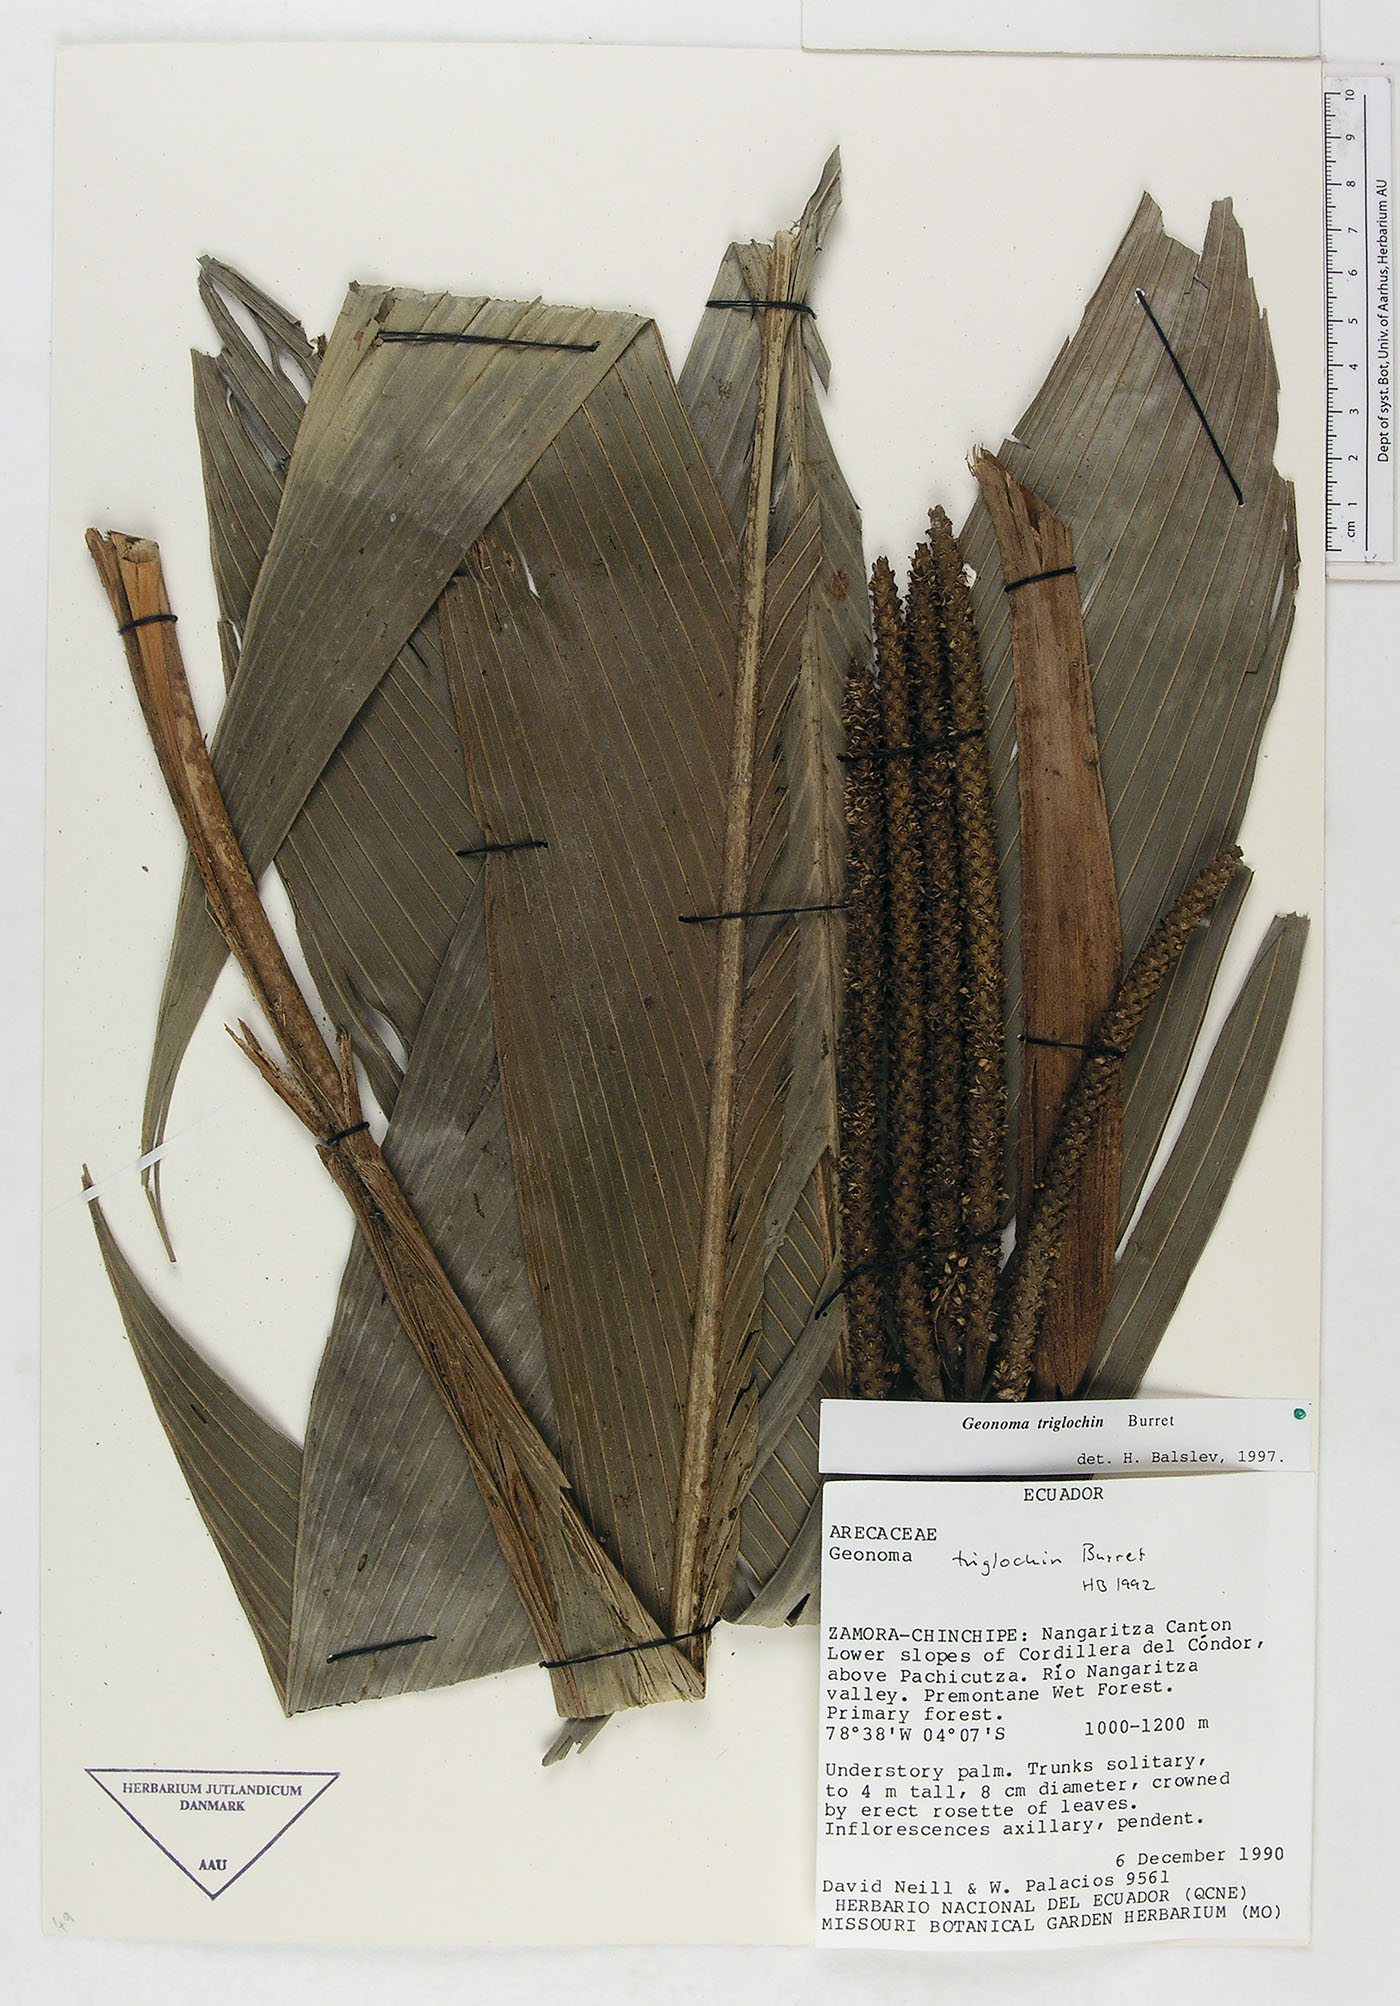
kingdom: Plantae
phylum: Tracheophyta
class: Liliopsida
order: Arecales
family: Arecaceae
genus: Geonoma
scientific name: Geonoma triglochin
